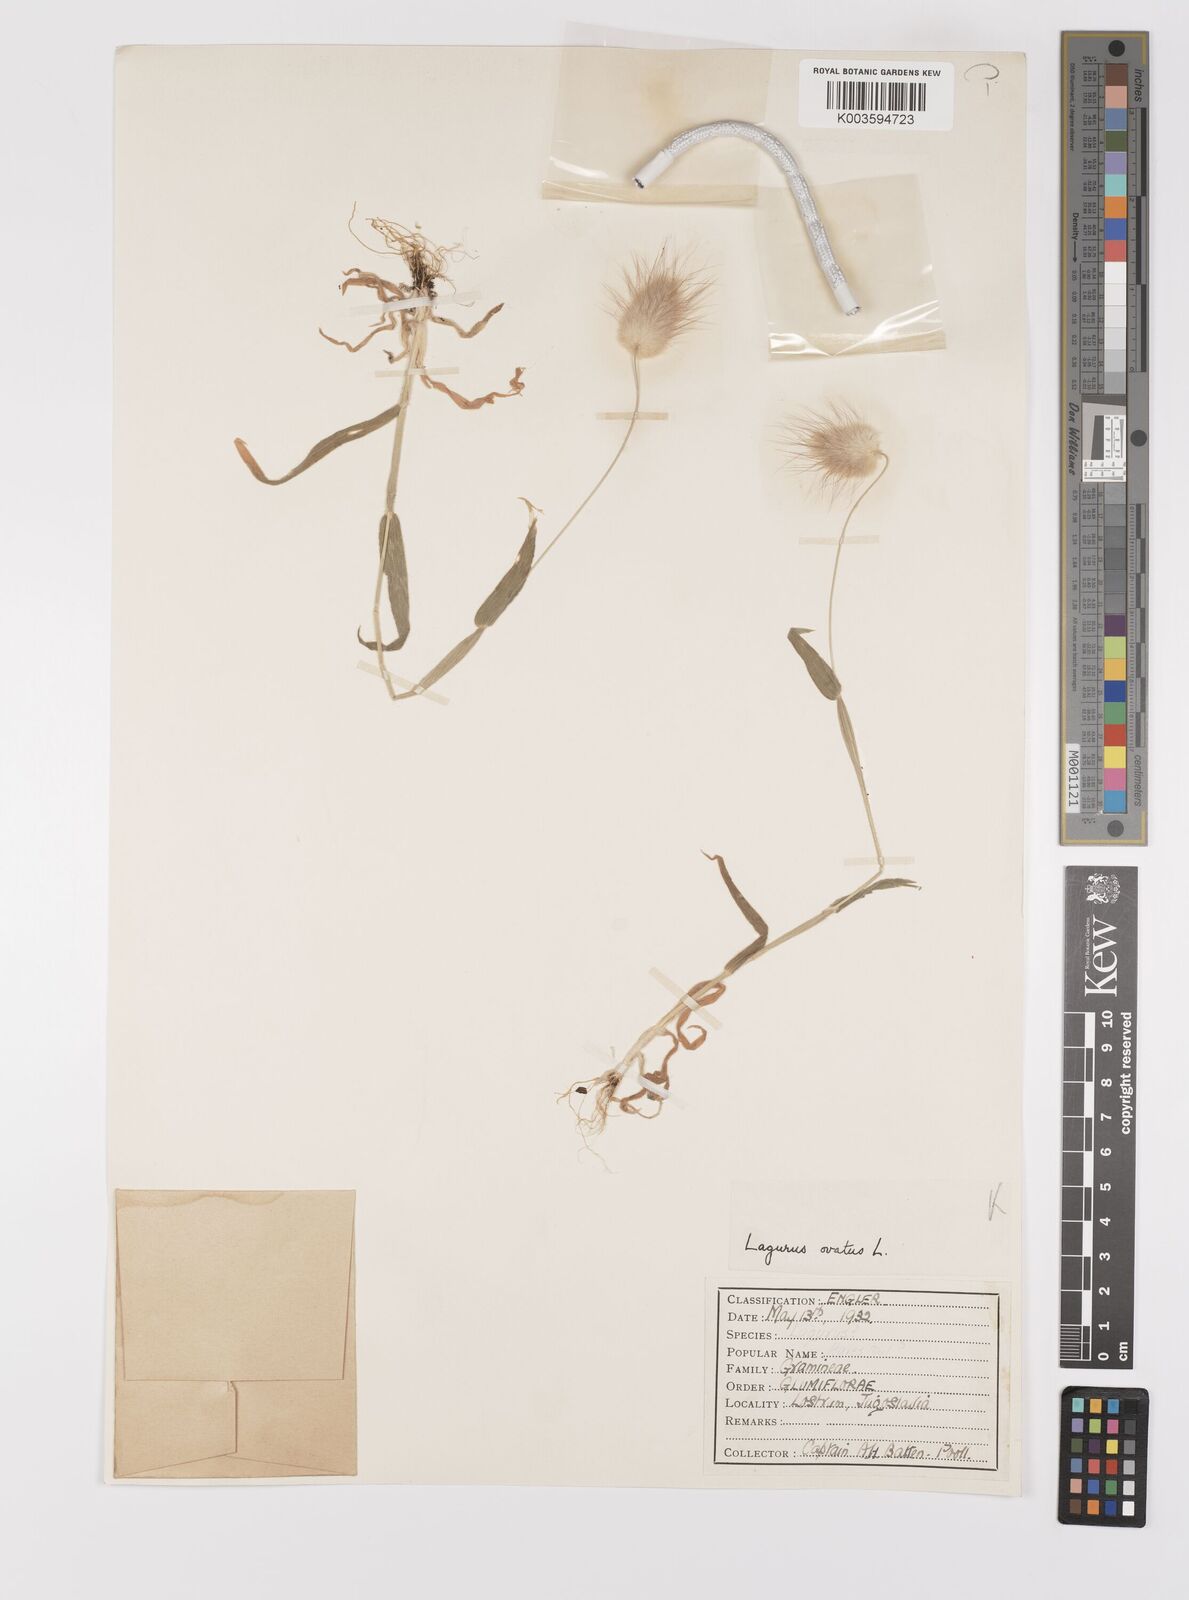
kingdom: Plantae
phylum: Tracheophyta
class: Liliopsida
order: Poales
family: Poaceae
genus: Lagurus
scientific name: Lagurus ovatus
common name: Hare's-tail
